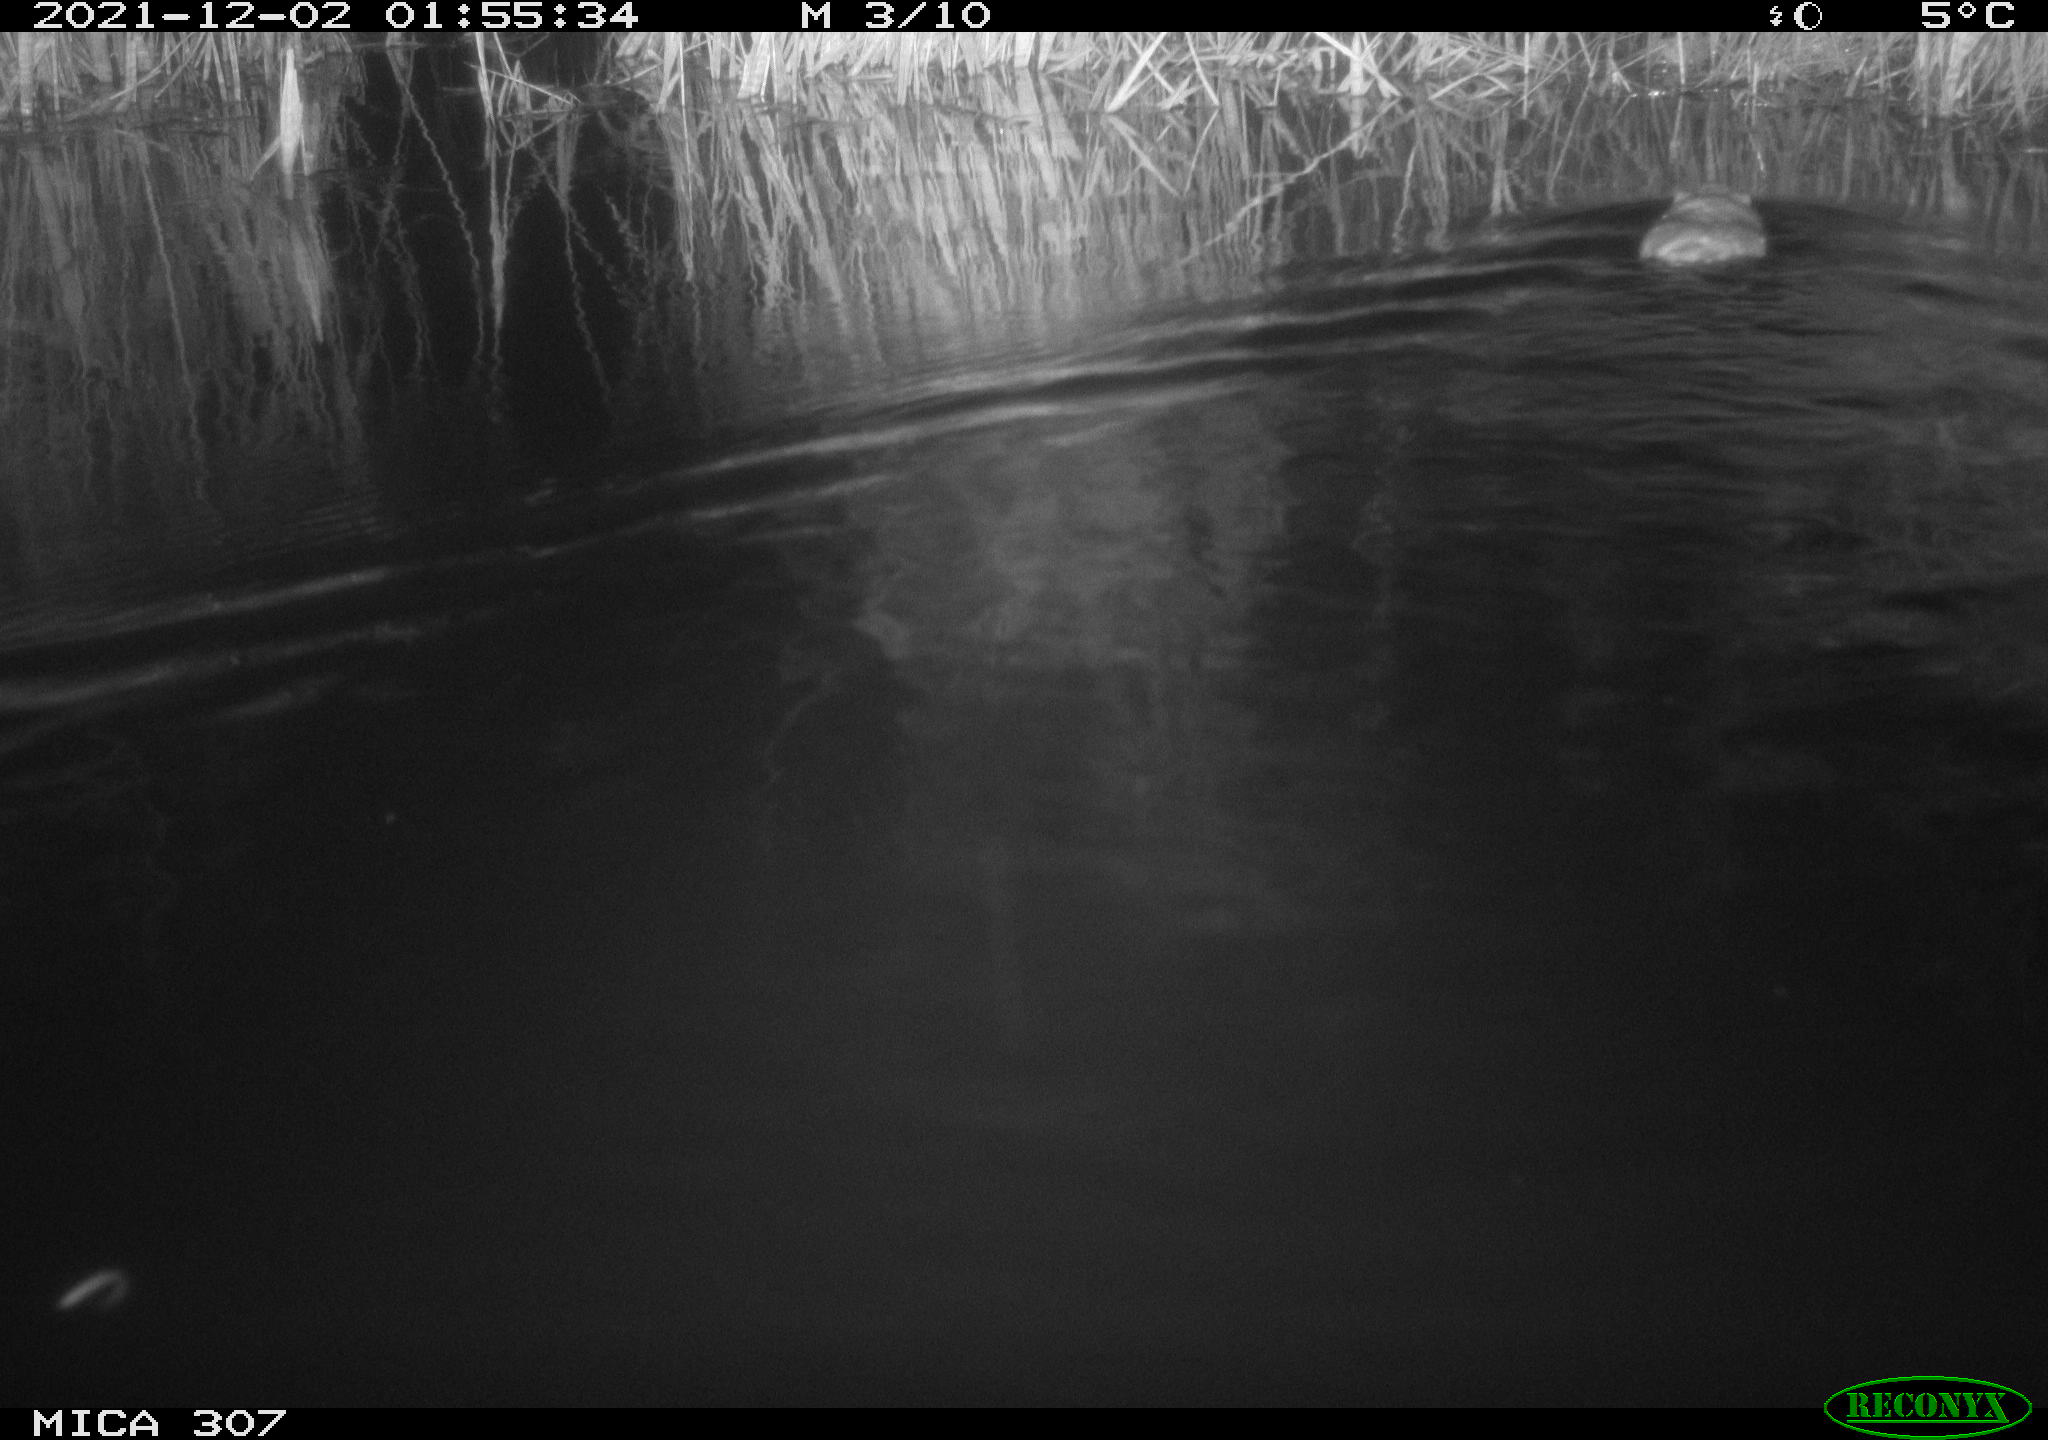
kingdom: Animalia
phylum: Chordata
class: Mammalia
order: Rodentia
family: Cricetidae
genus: Ondatra
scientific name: Ondatra zibethicus
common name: Muskrat
